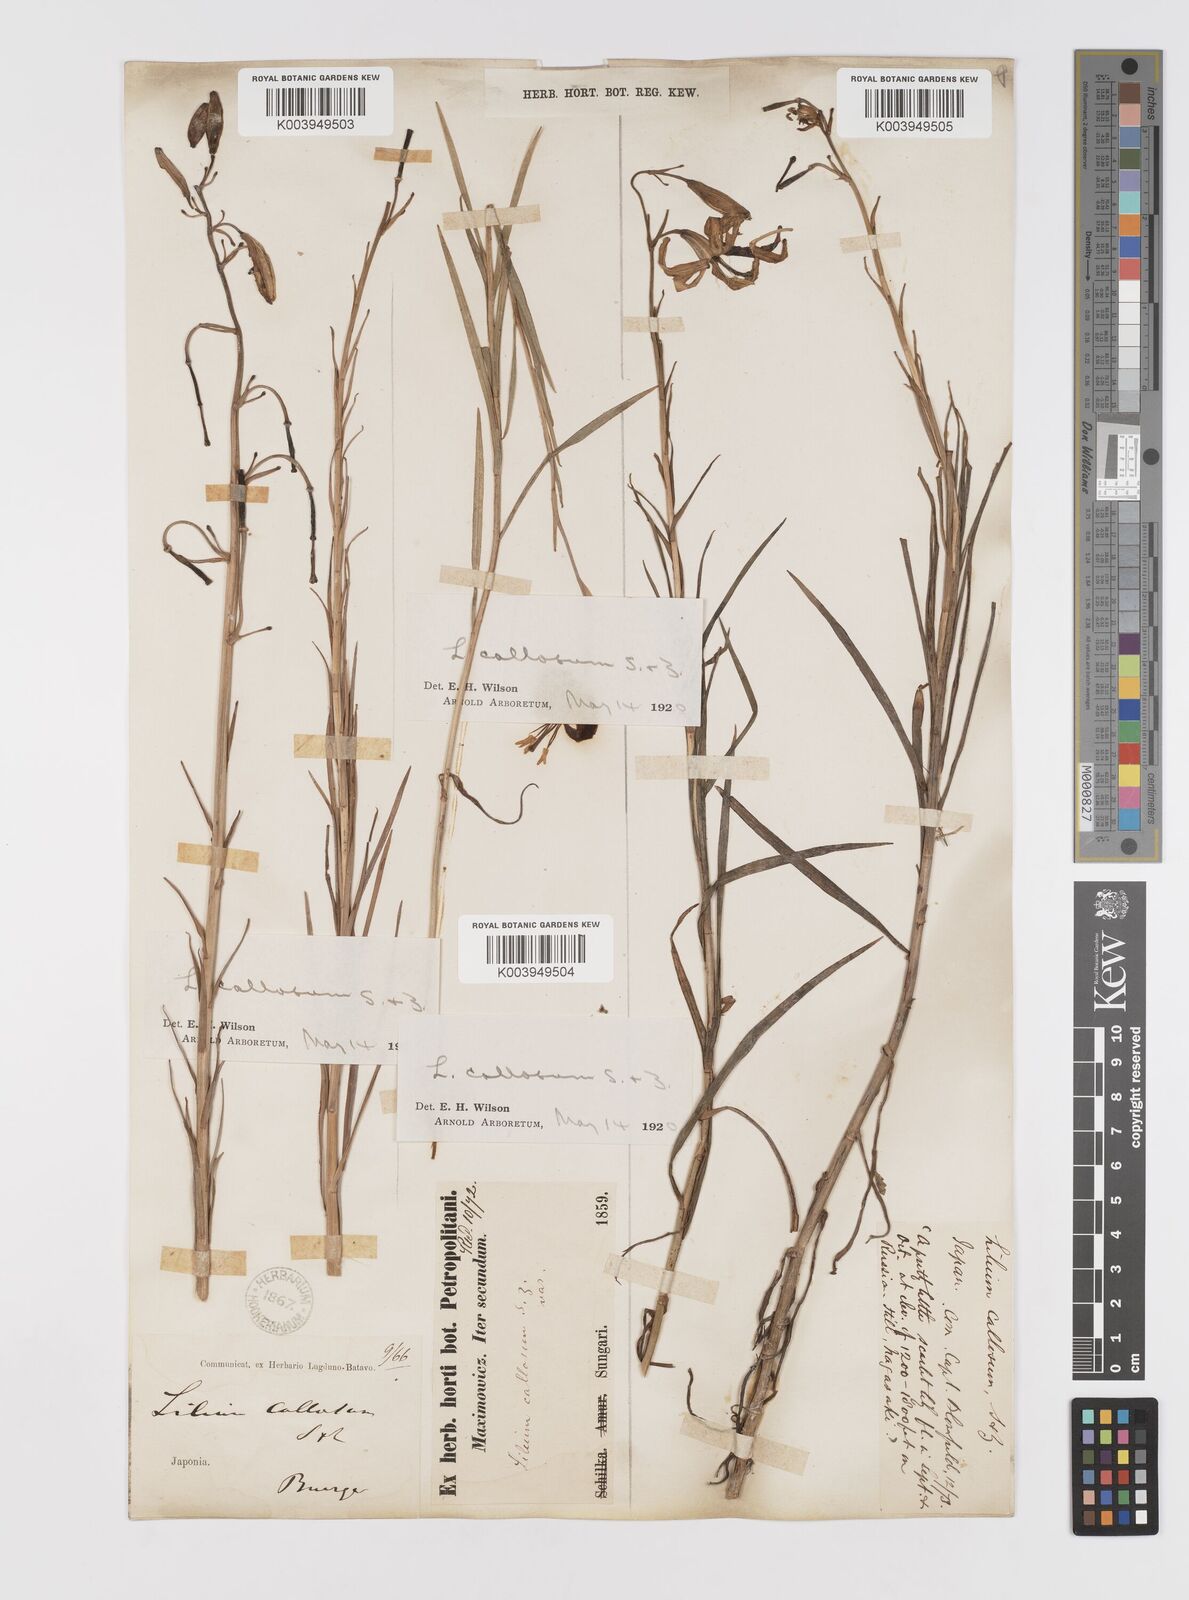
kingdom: Plantae
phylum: Tracheophyta
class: Liliopsida
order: Liliales
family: Liliaceae
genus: Lilium
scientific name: Lilium callosum
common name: Slim-stem lily
